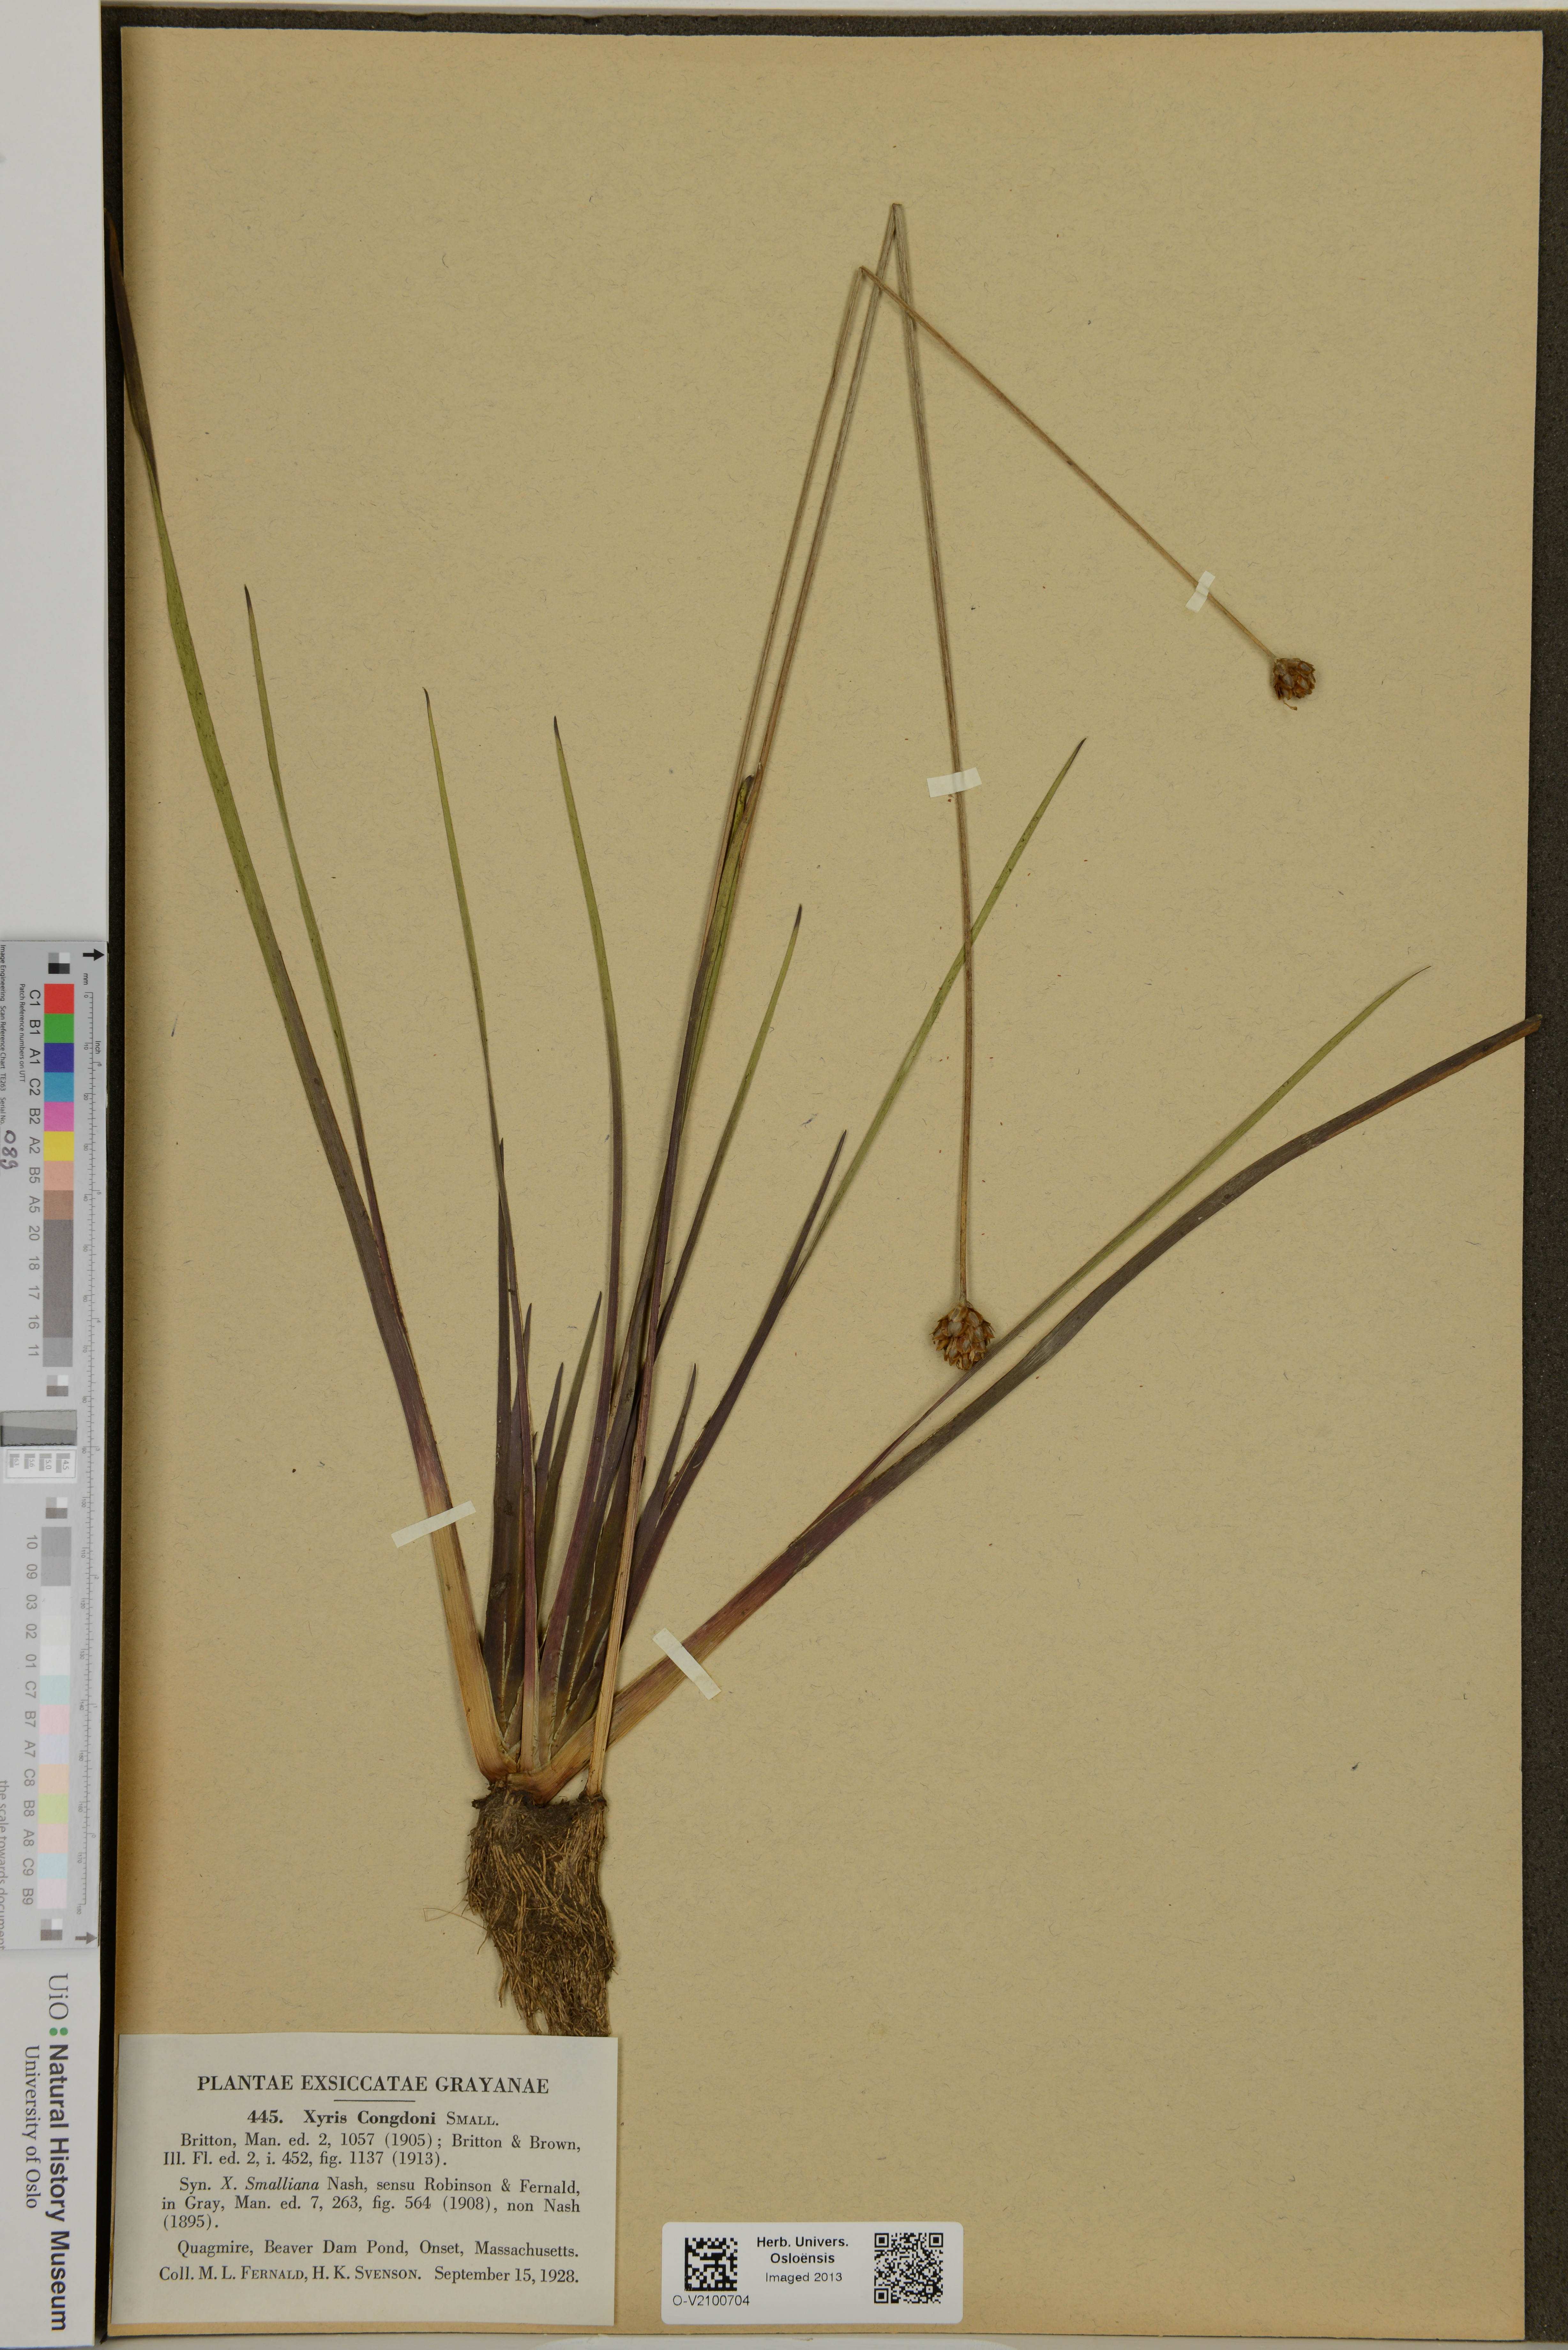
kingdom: Plantae
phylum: Tracheophyta
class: Liliopsida
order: Poales
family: Xyridaceae
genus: Xyris
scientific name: Xyris smalliana
